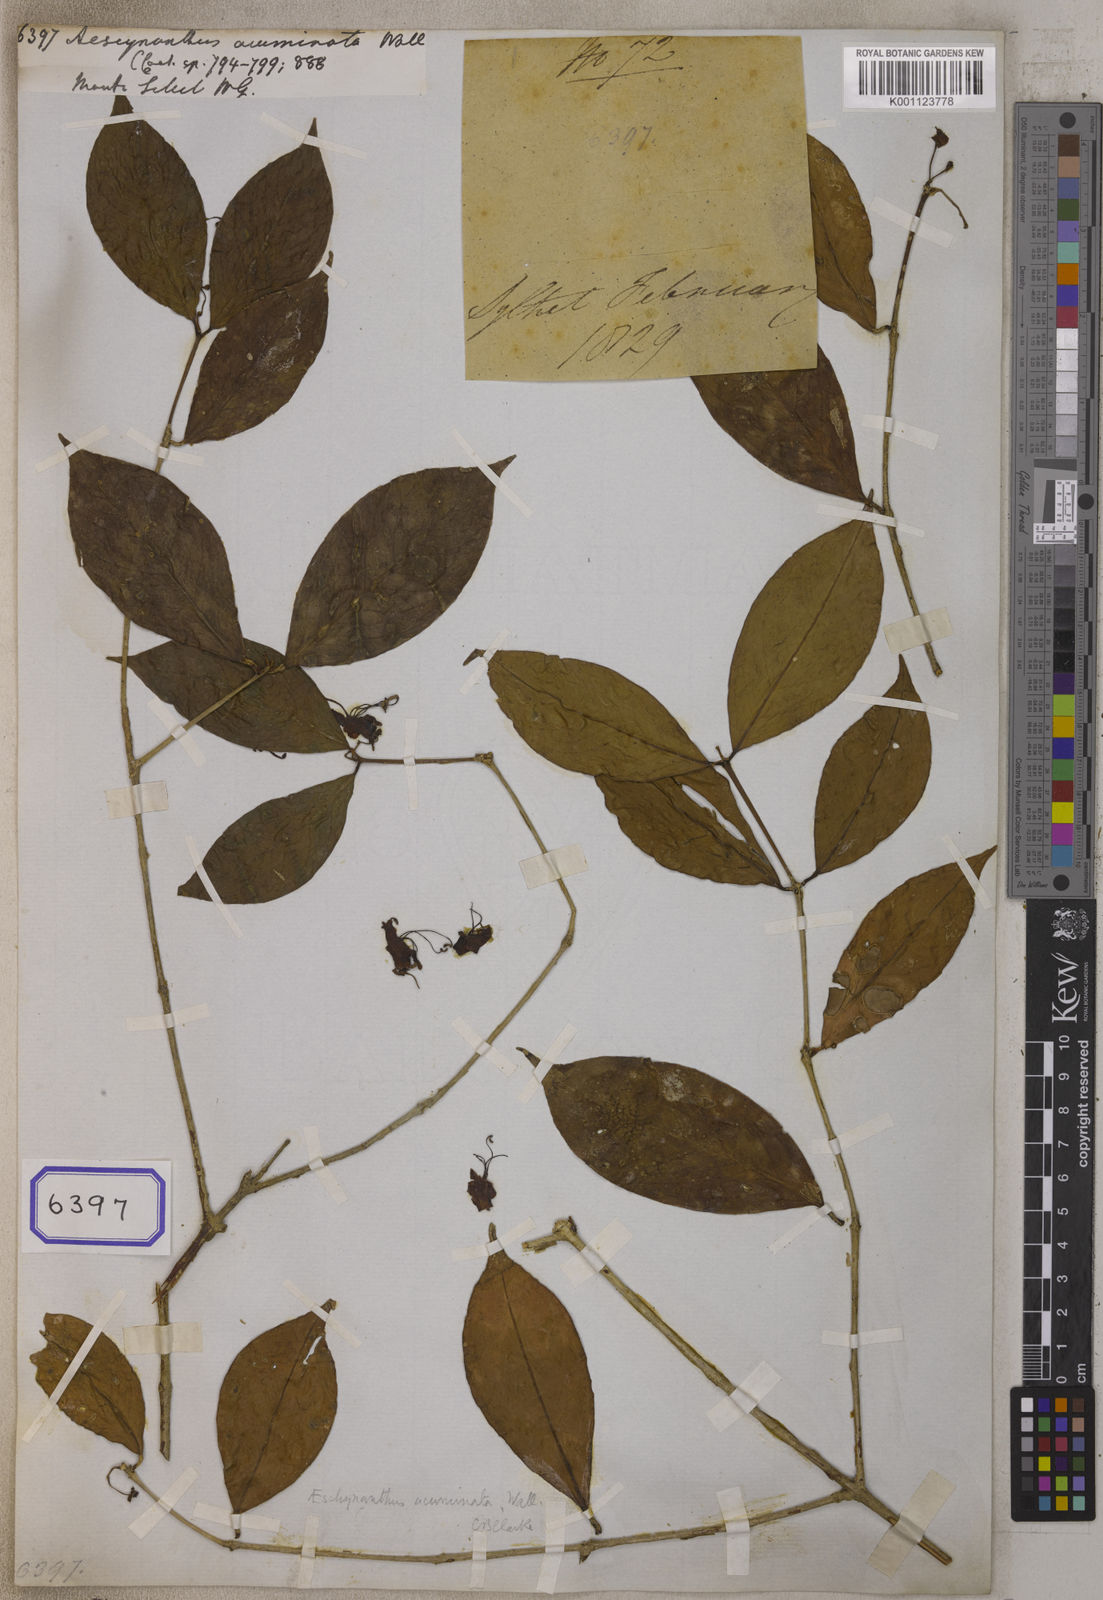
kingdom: Plantae
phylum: Tracheophyta
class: Magnoliopsida
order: Lamiales
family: Gesneriaceae
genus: Aeschynanthus
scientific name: Aeschynanthus
